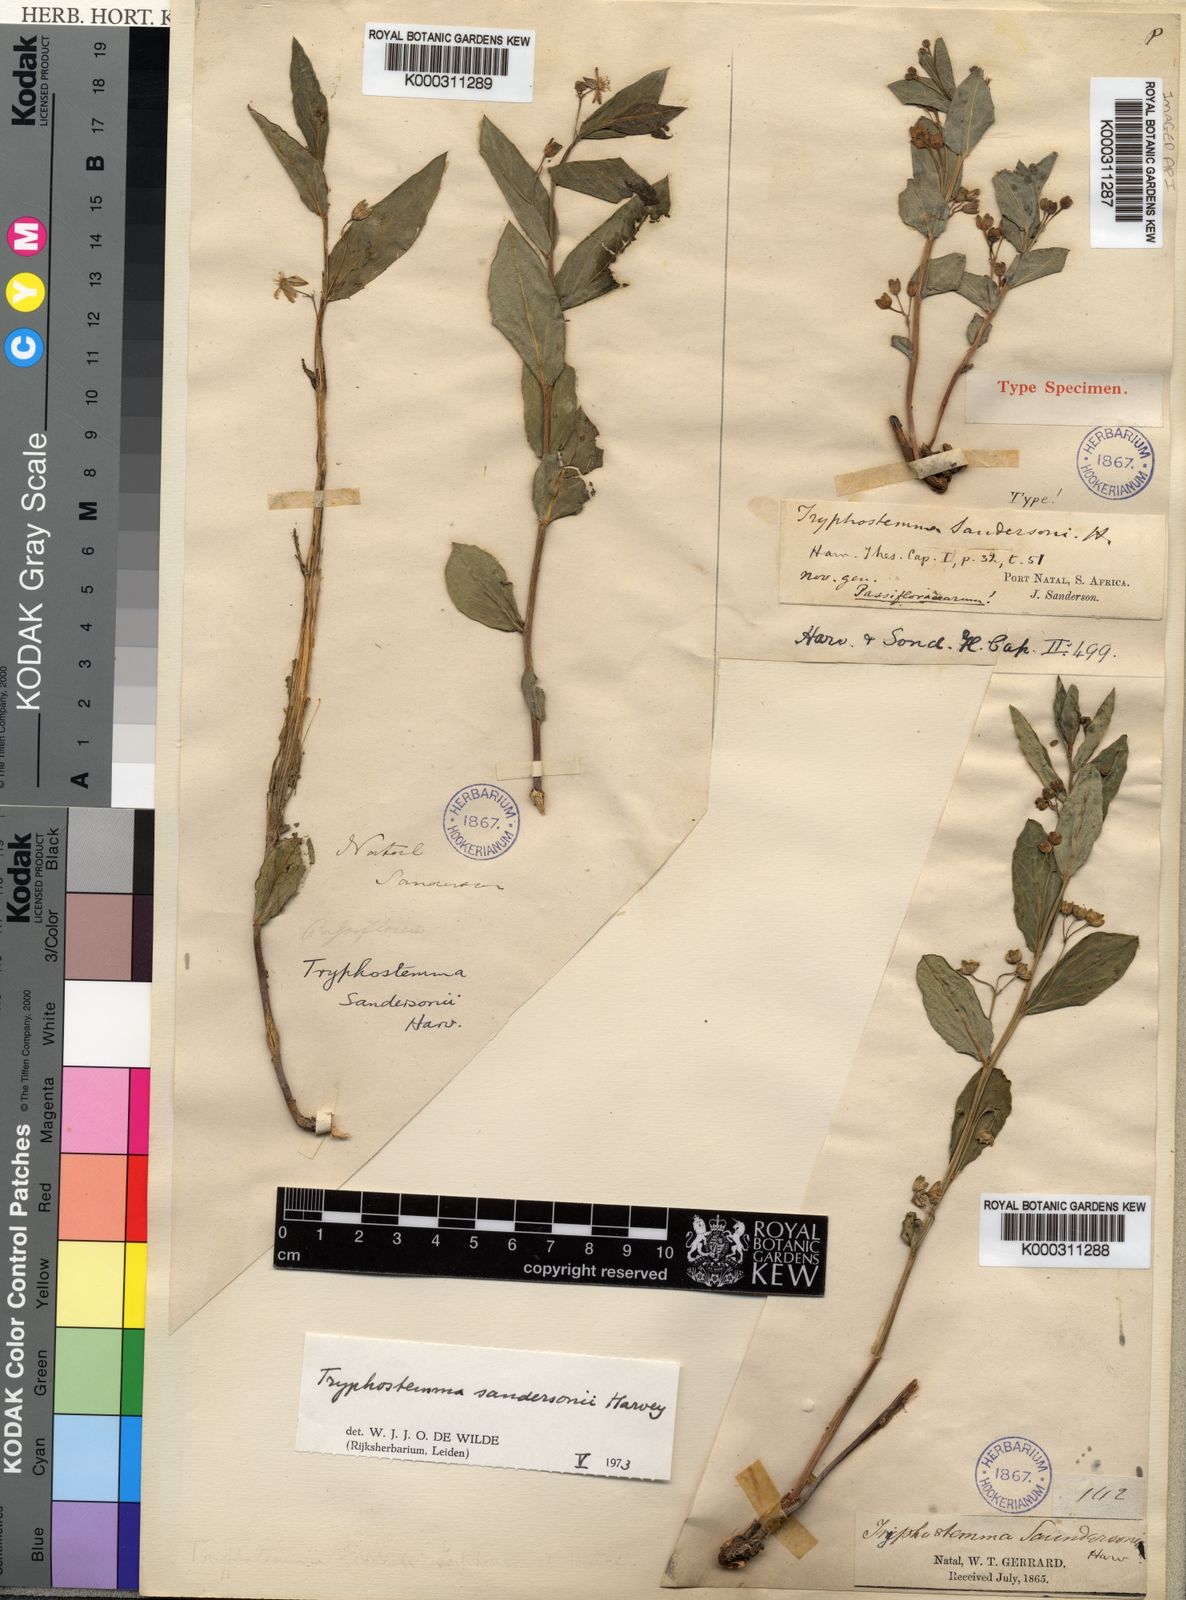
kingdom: Plantae
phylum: Tracheophyta
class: Magnoliopsida
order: Malpighiales
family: Passifloraceae
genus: Basananthe
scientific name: Basananthe sandersonii
